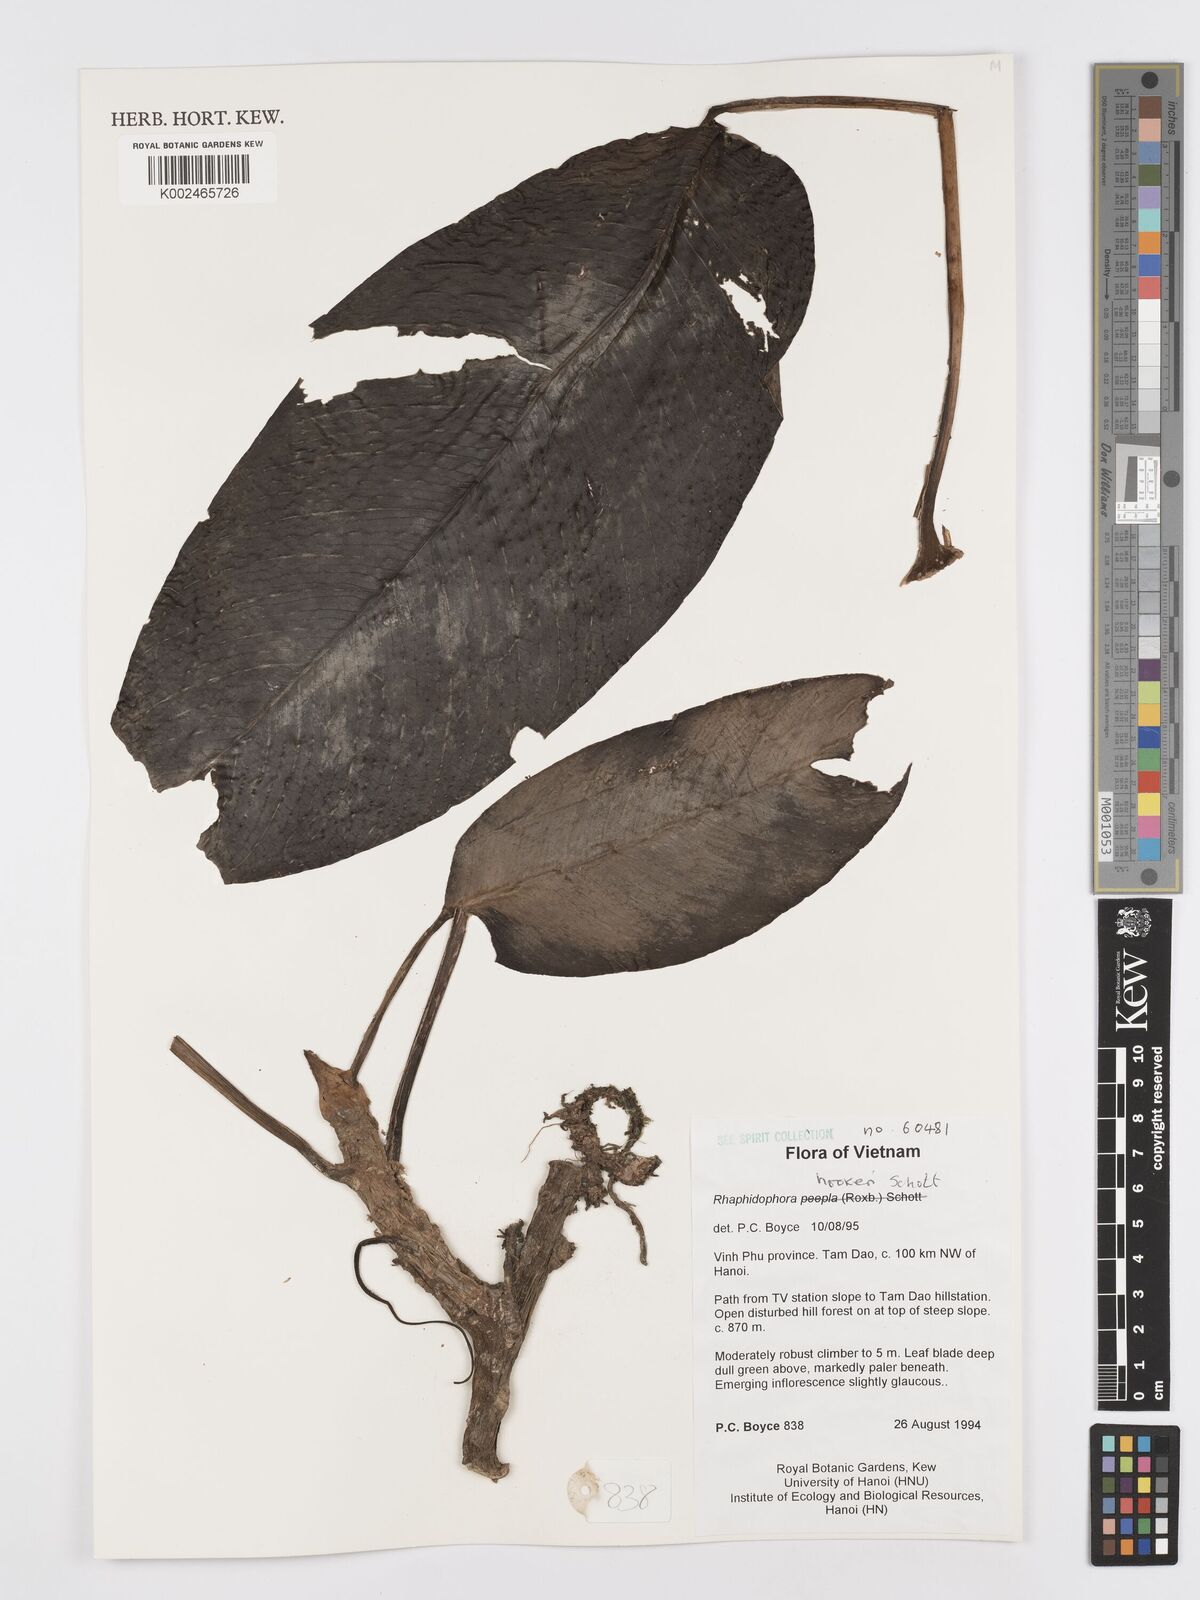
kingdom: Plantae
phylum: Tracheophyta
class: Liliopsida
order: Alismatales
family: Araceae
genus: Rhaphidophora
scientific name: Rhaphidophora hookeri
